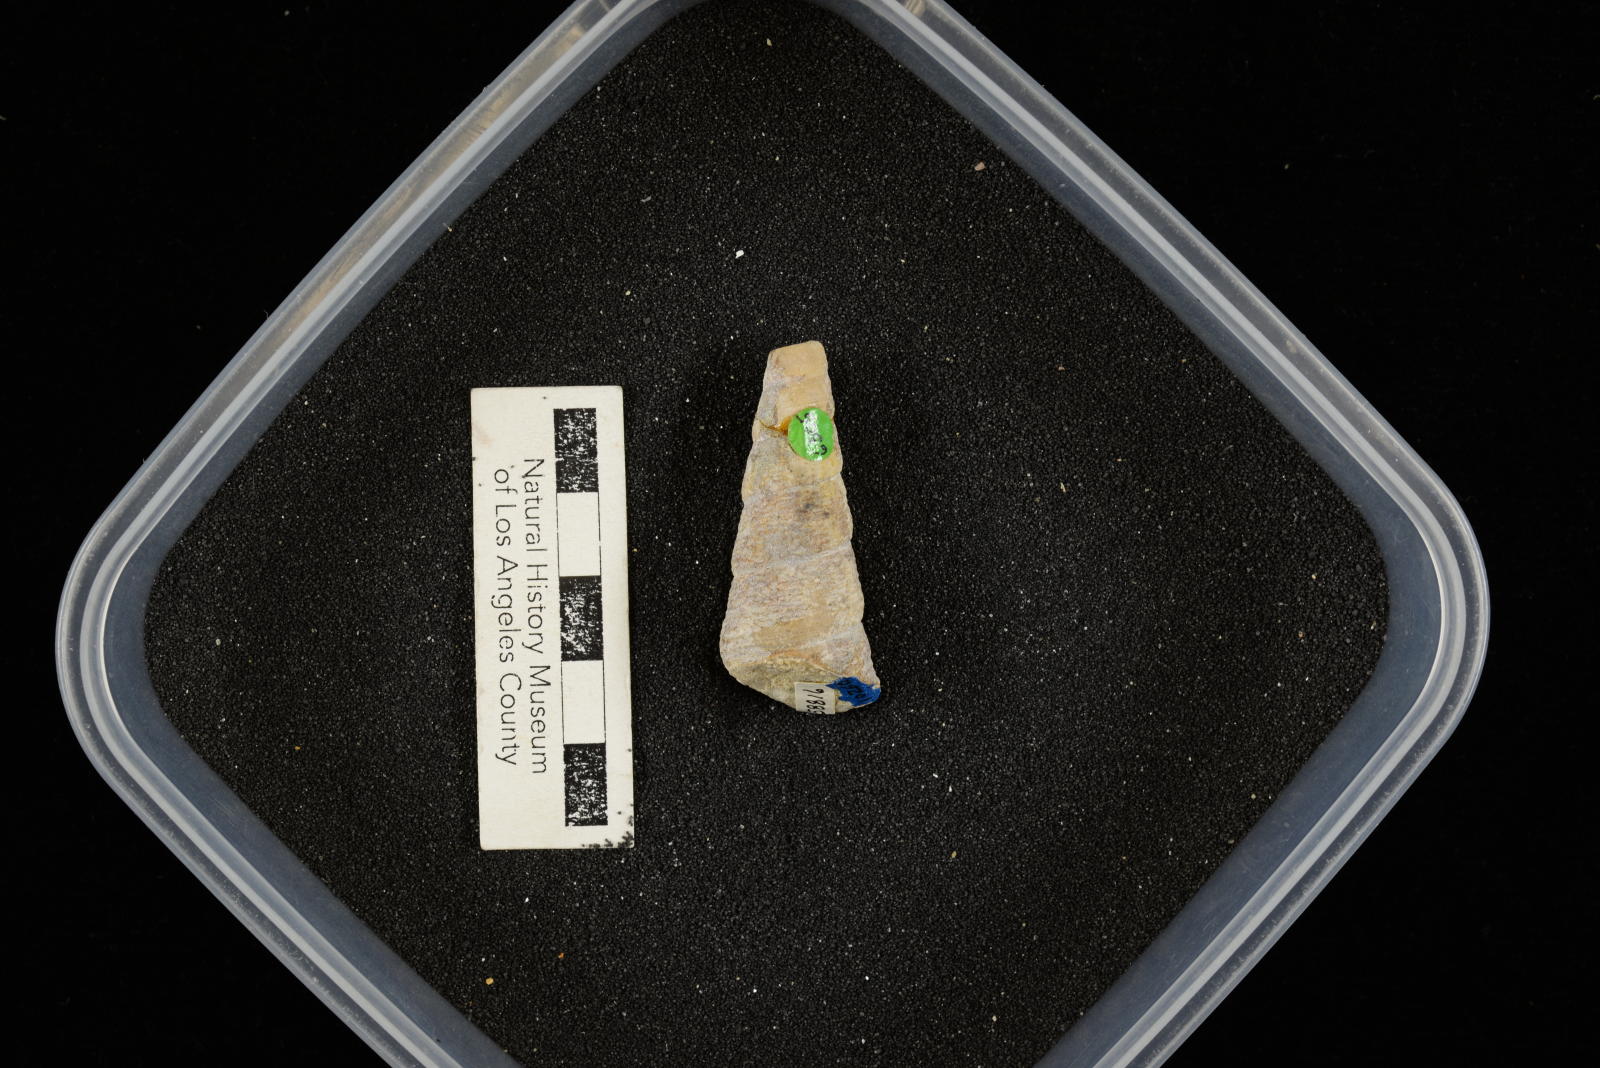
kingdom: Animalia
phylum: Mollusca
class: Gastropoda
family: Turritellidae
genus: Turritella
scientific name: Turritella chaneyi
